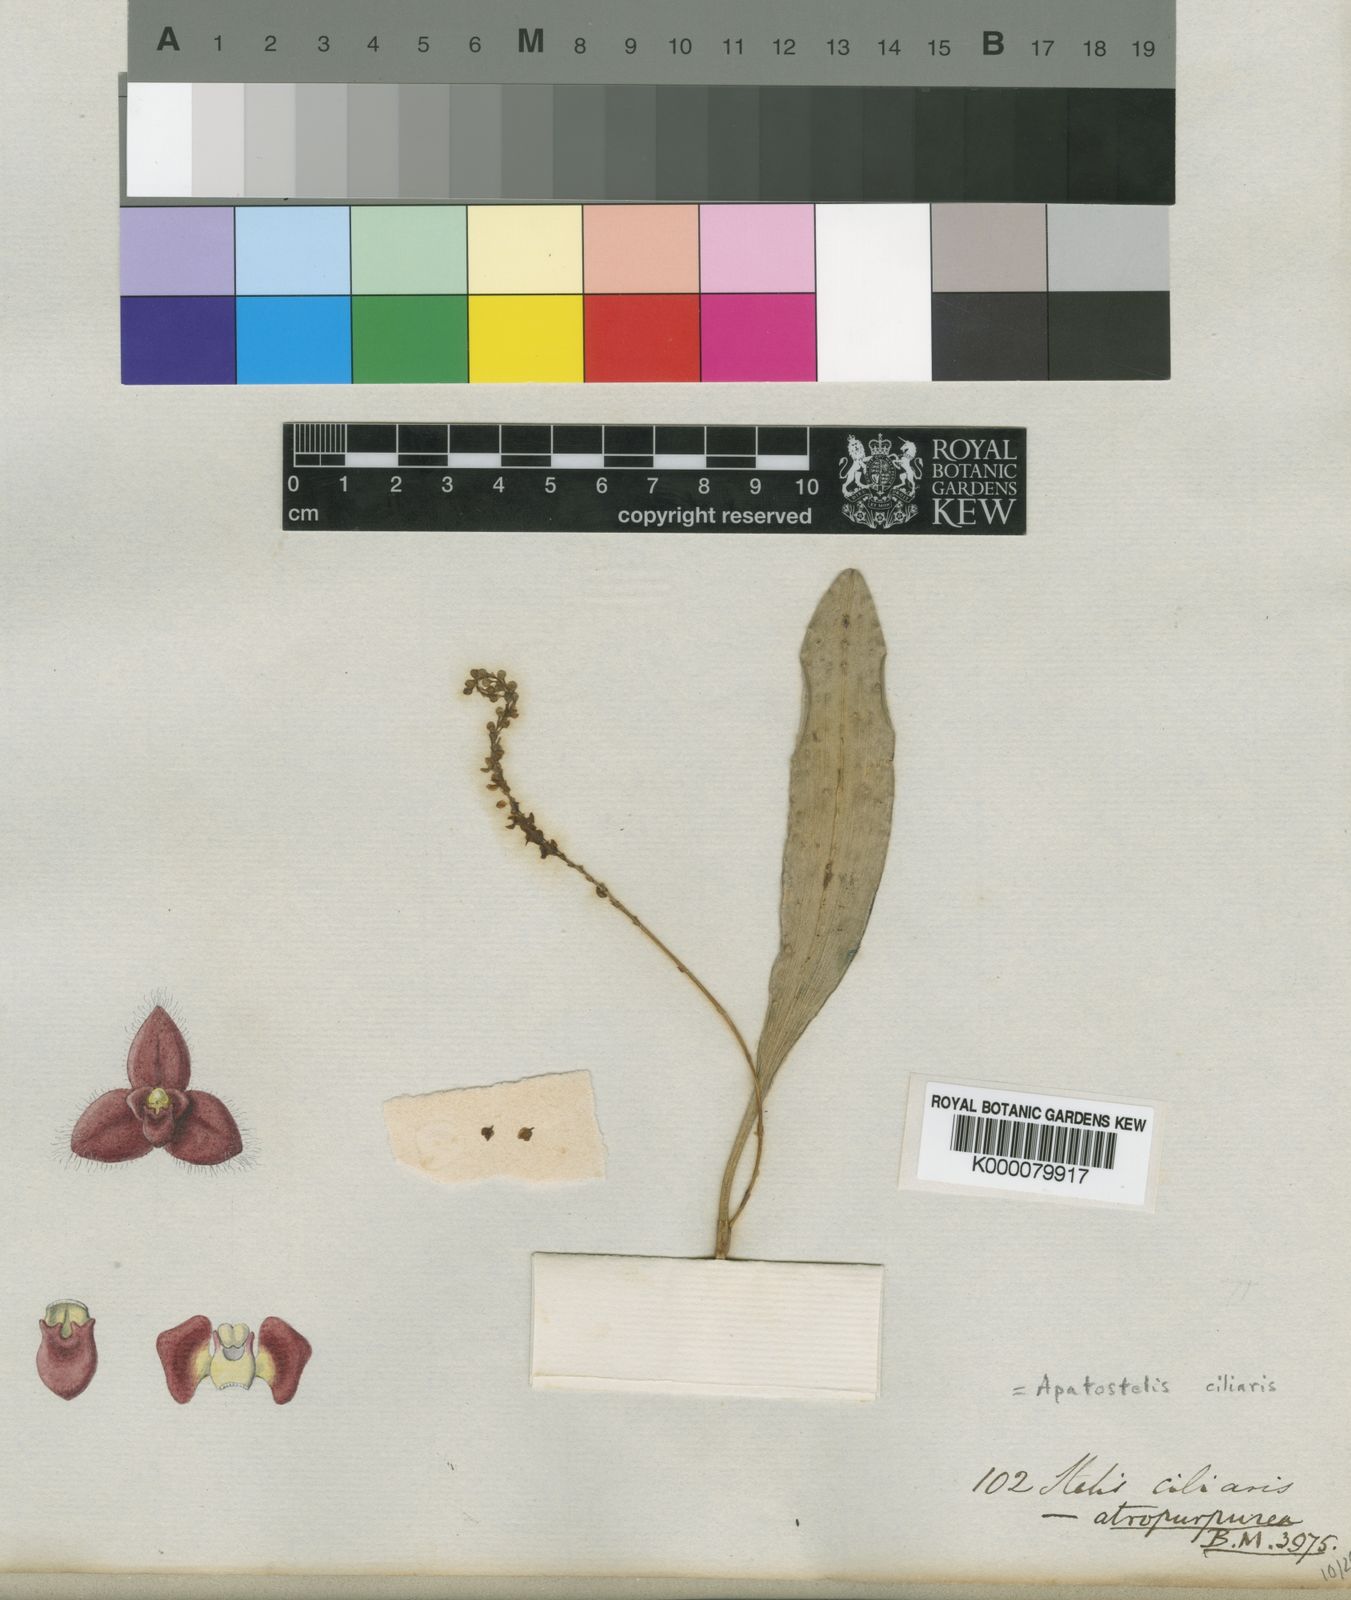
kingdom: Plantae
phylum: Tracheophyta
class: Liliopsida
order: Asparagales
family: Orchidaceae
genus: Stelis
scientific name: Stelis ciliaris
